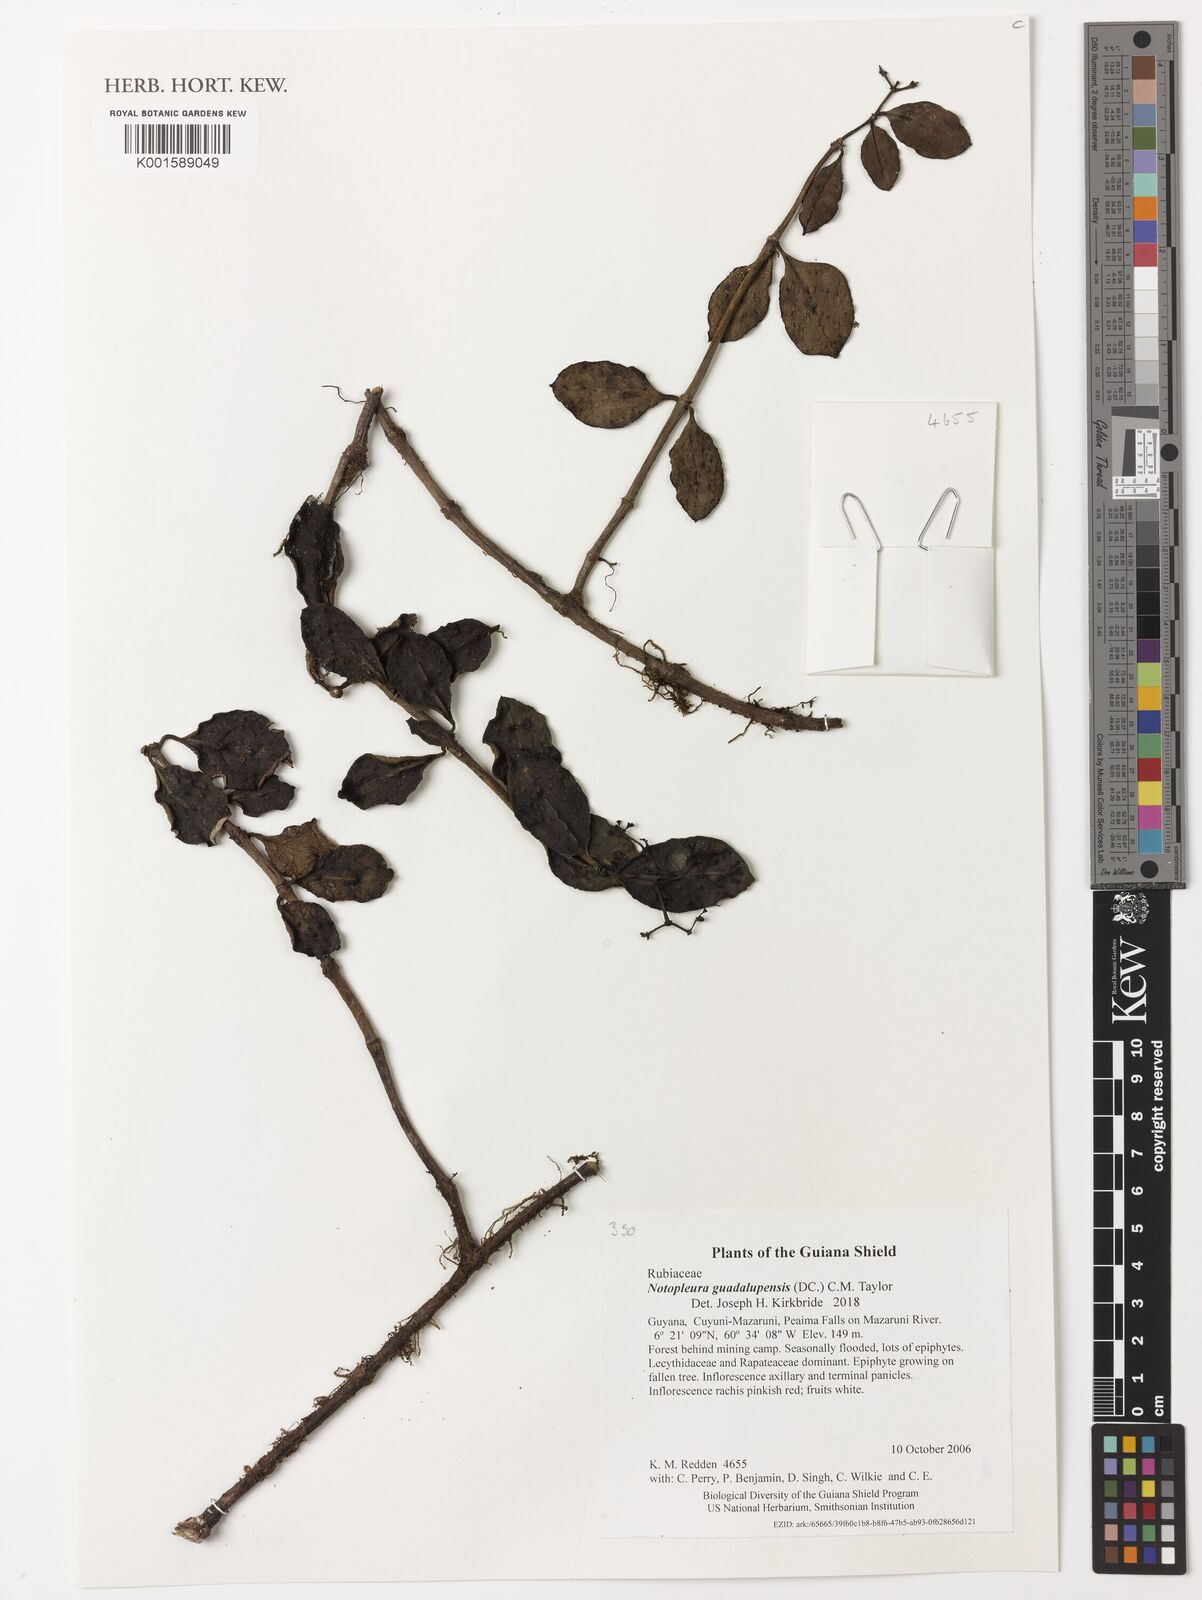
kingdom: Plantae
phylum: Tracheophyta
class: Magnoliopsida
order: Gentianales
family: Rubiaceae
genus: Notopleura
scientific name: Notopleura parasitica
